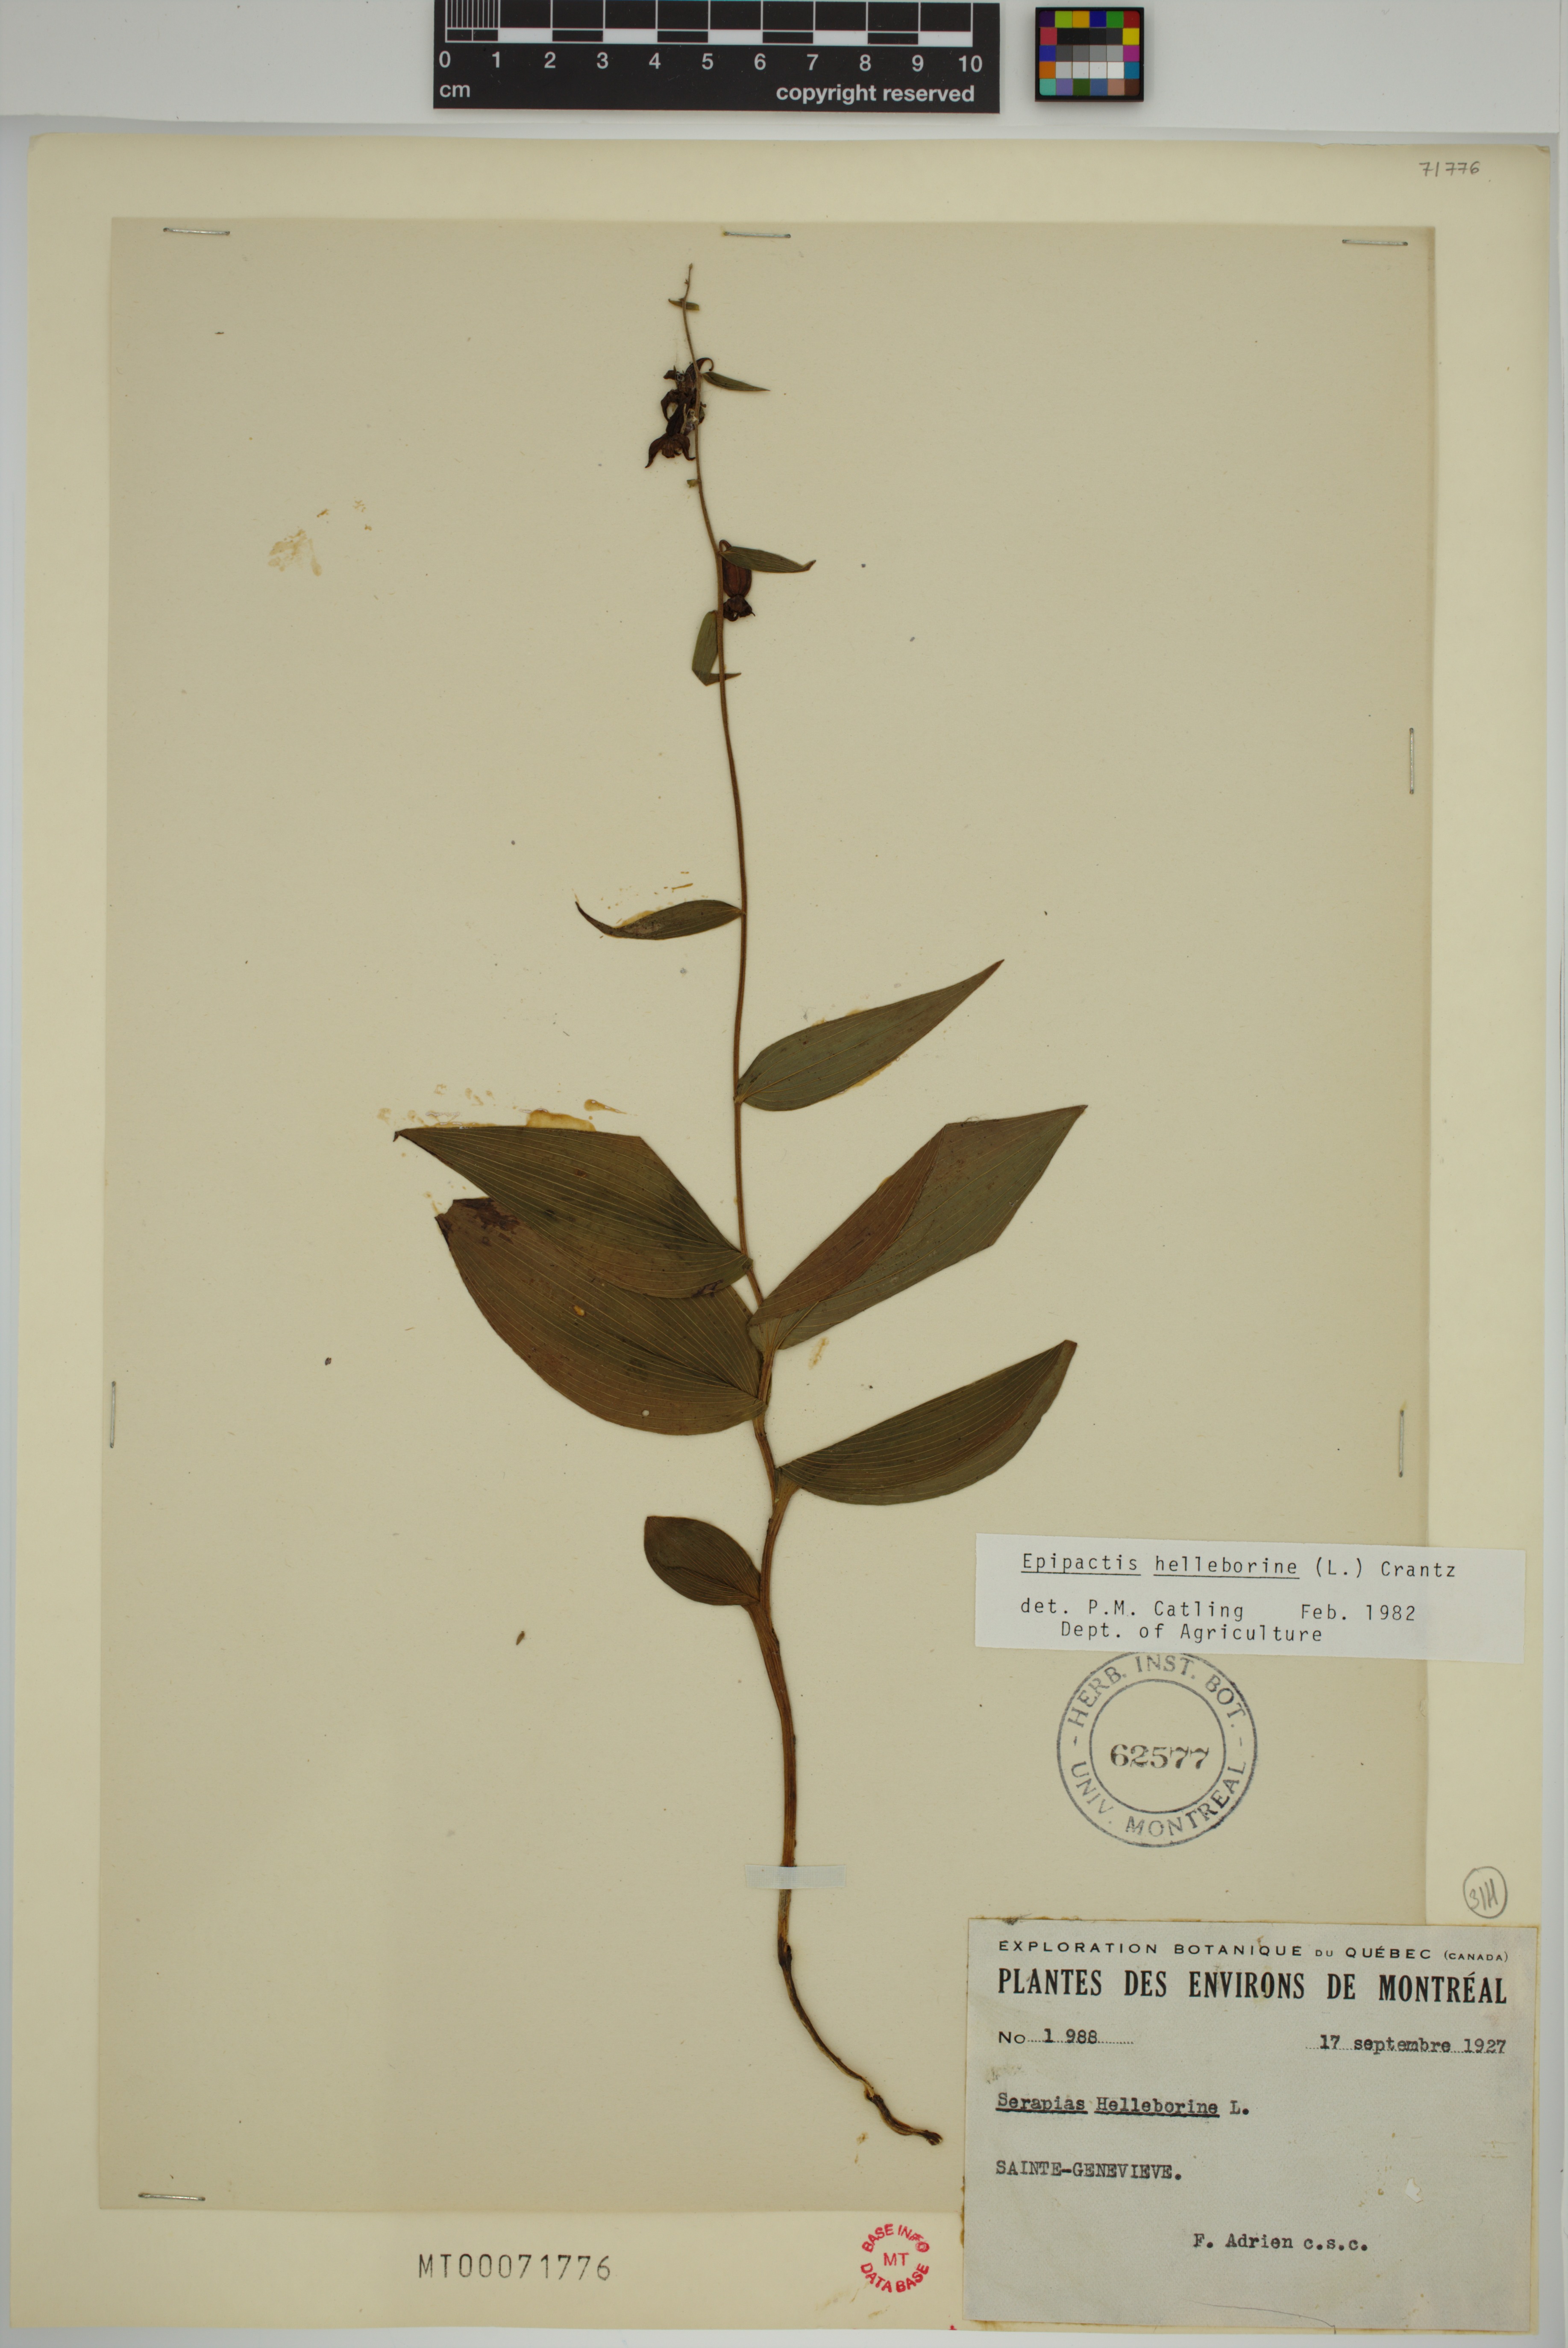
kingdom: Plantae
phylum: Tracheophyta
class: Liliopsida
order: Asparagales
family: Orchidaceae
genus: Epipactis
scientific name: Epipactis helleborine
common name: Broad-leaved helleborine
